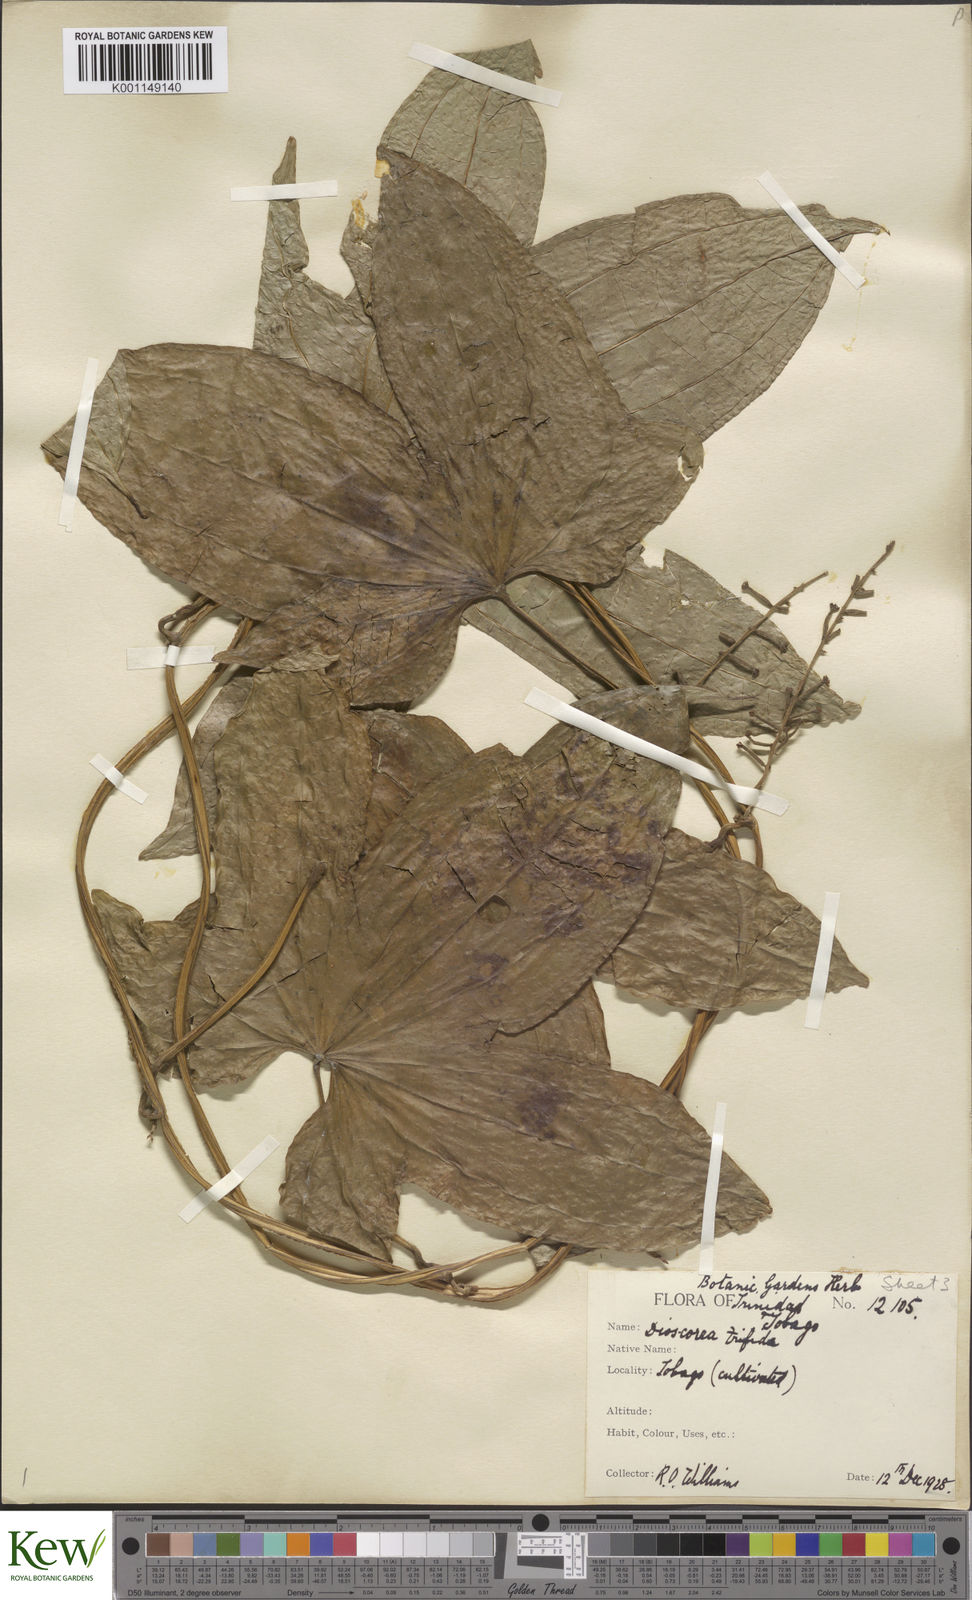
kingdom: Plantae
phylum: Tracheophyta
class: Liliopsida
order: Dioscoreales
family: Dioscoreaceae
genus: Dioscorea
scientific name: Dioscorea trifida
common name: Cush-cush
